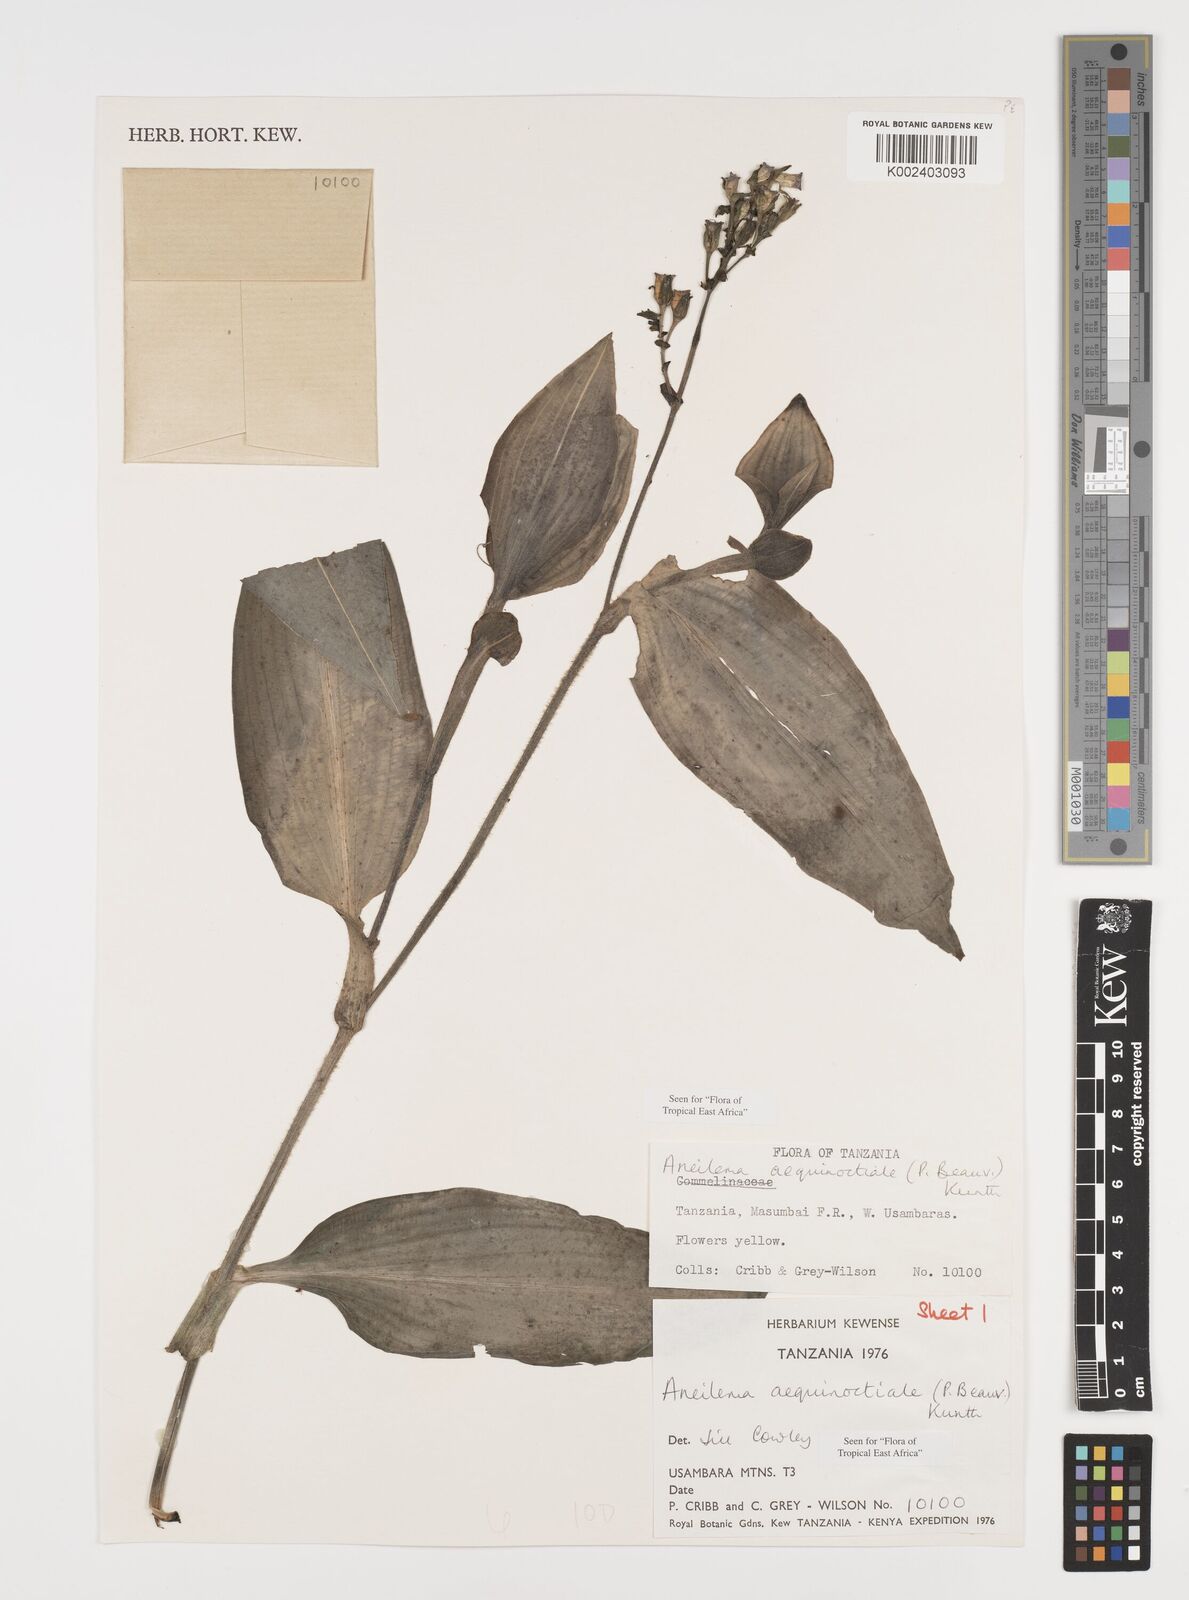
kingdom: Plantae
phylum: Tracheophyta
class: Liliopsida
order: Commelinales
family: Commelinaceae
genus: Aneilema
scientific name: Aneilema aequinoctiale
